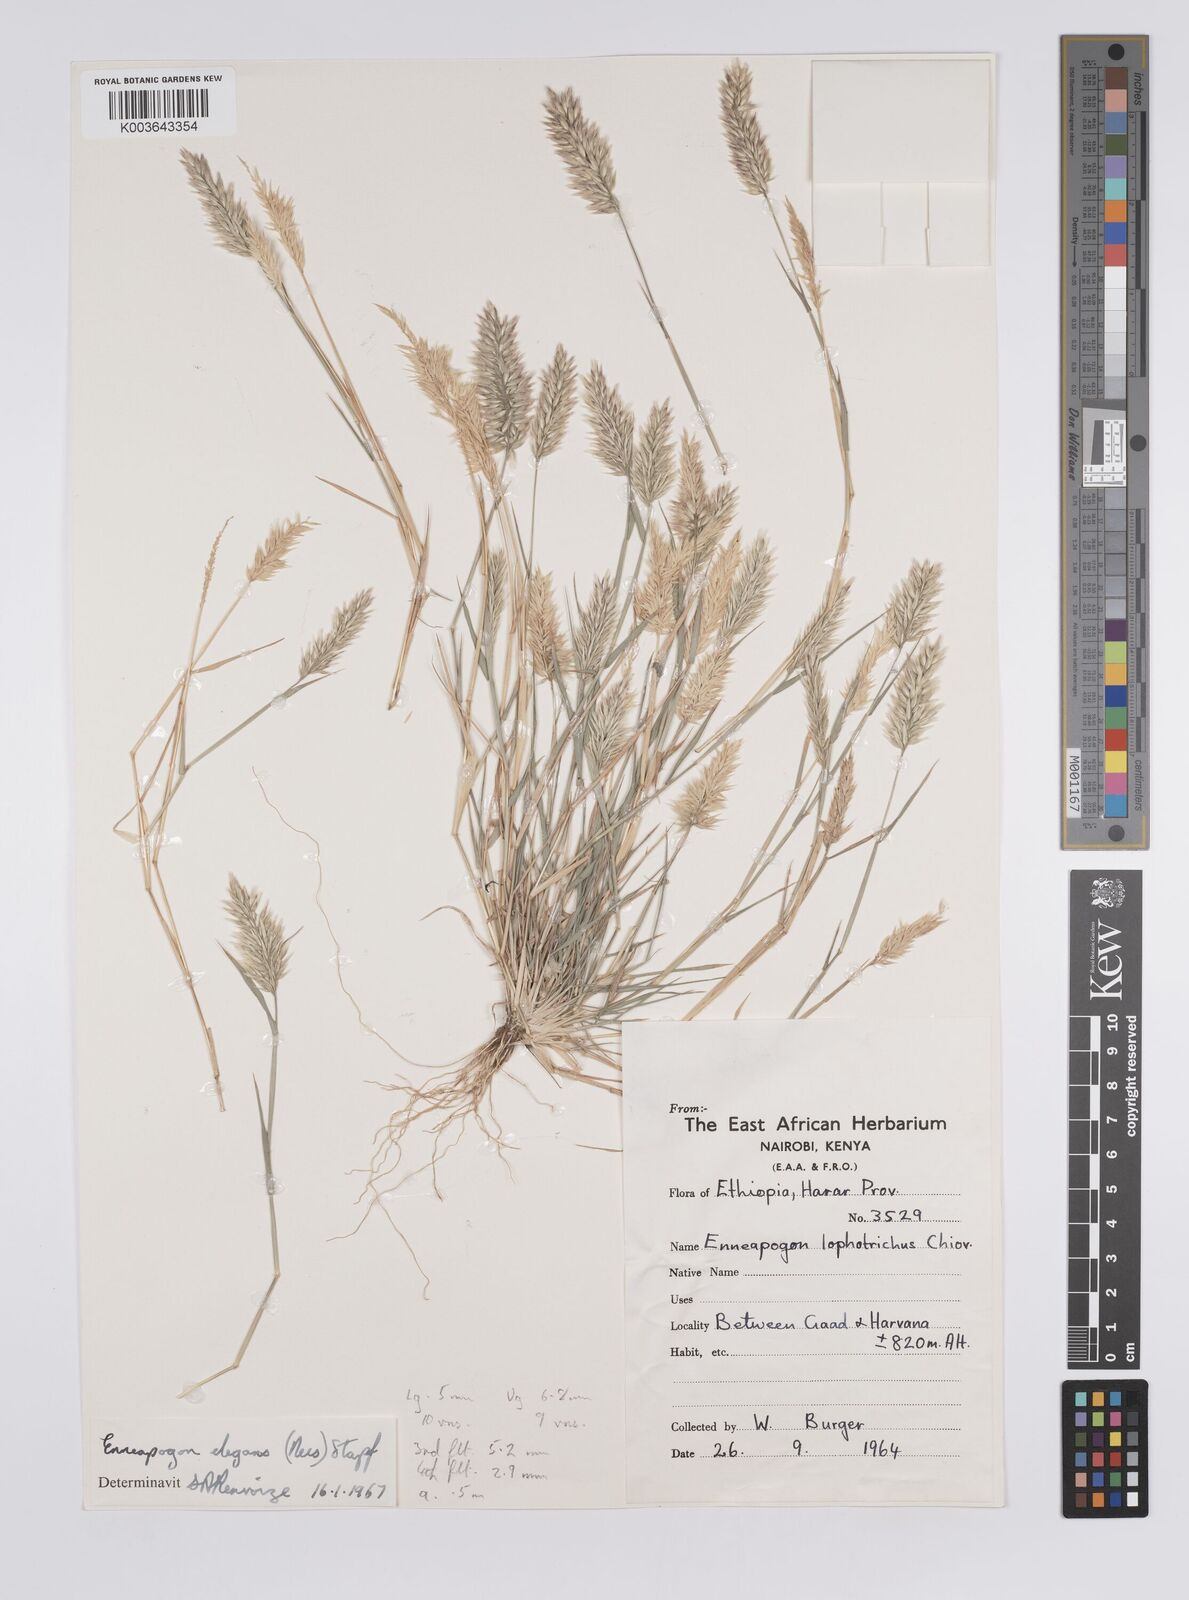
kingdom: Plantae
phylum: Tracheophyta
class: Liliopsida
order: Poales
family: Poaceae
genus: Enneapogon
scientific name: Enneapogon lophotrichus
